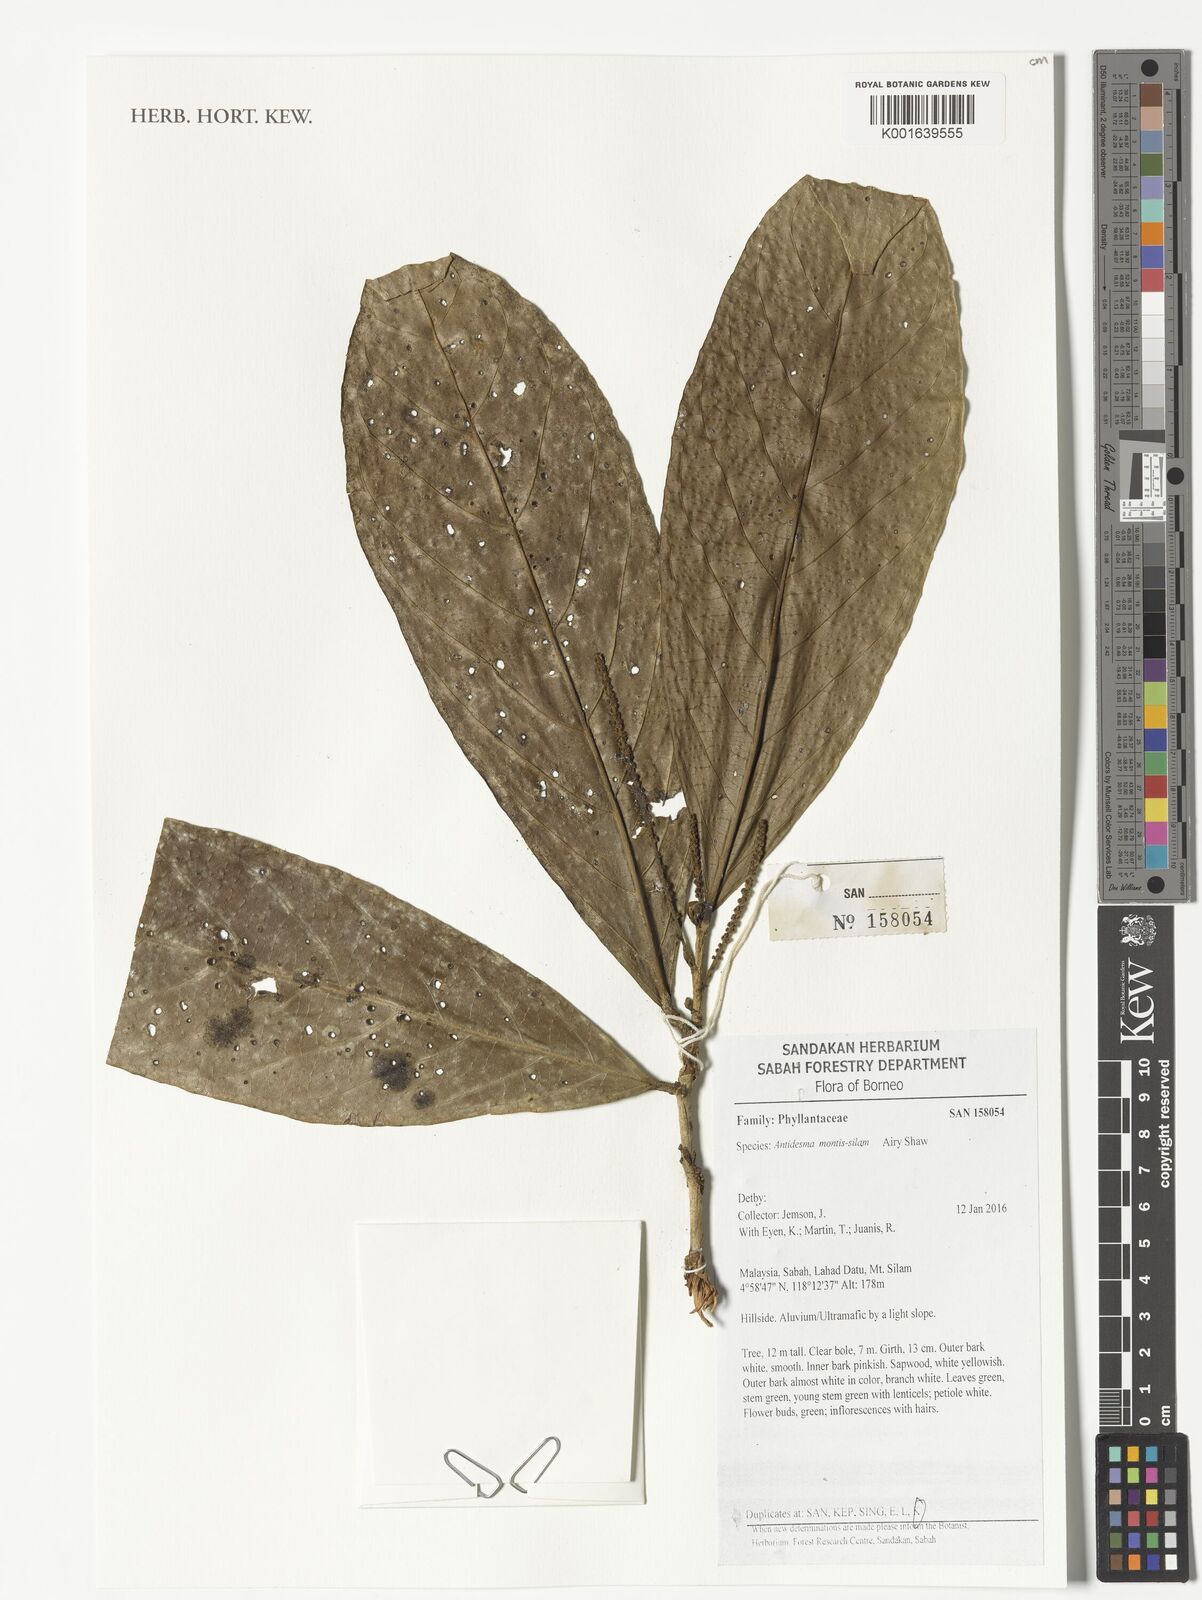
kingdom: Plantae
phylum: Tracheophyta
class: Magnoliopsida
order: Malpighiales
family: Phyllanthaceae
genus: Antidesma
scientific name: Antidesma montis-silam
